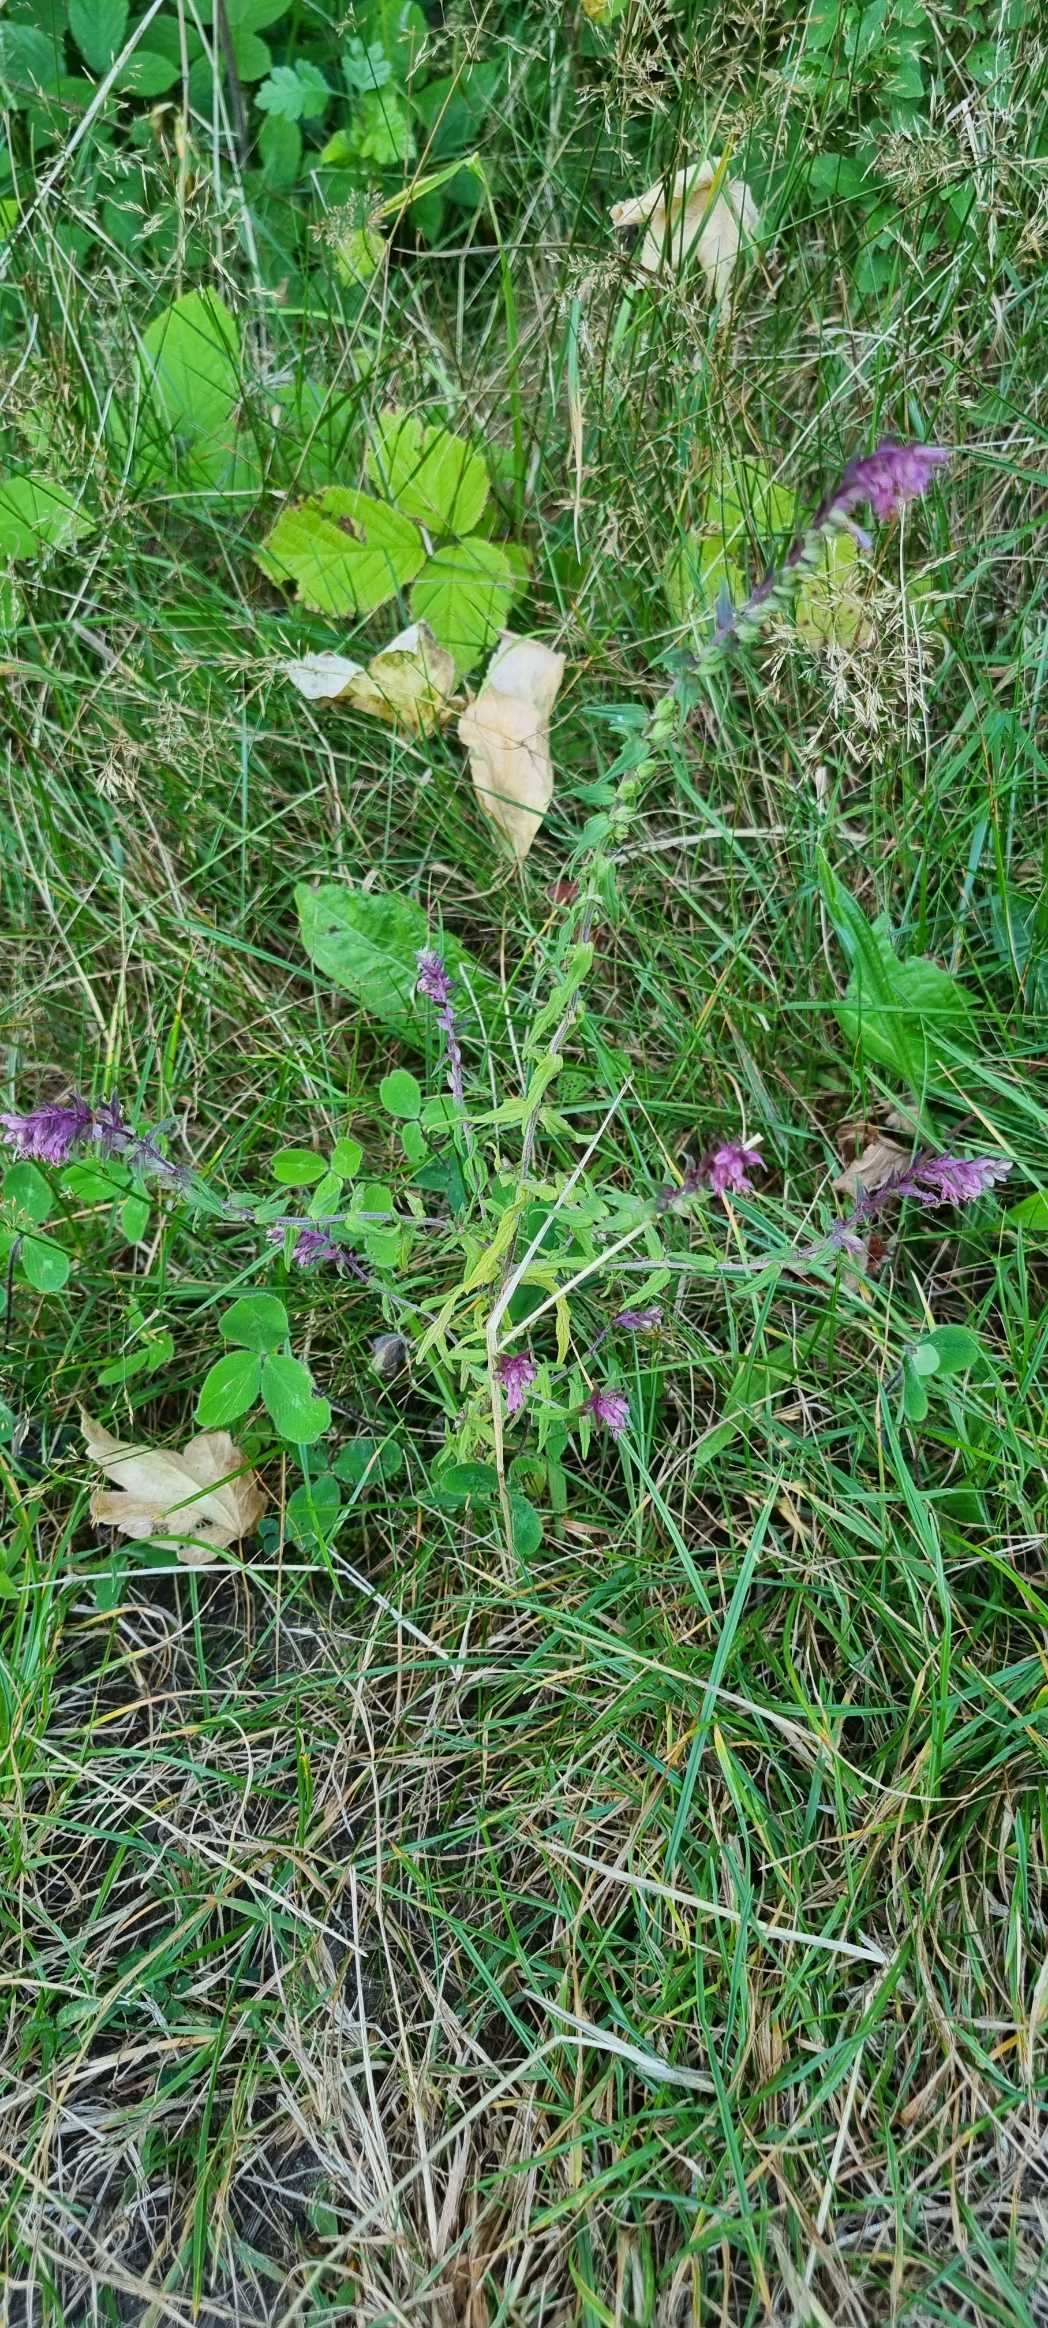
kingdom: Plantae
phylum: Tracheophyta
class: Magnoliopsida
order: Lamiales
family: Orobanchaceae
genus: Odontites
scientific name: Odontites vulgaris
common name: Høst-rødtop
